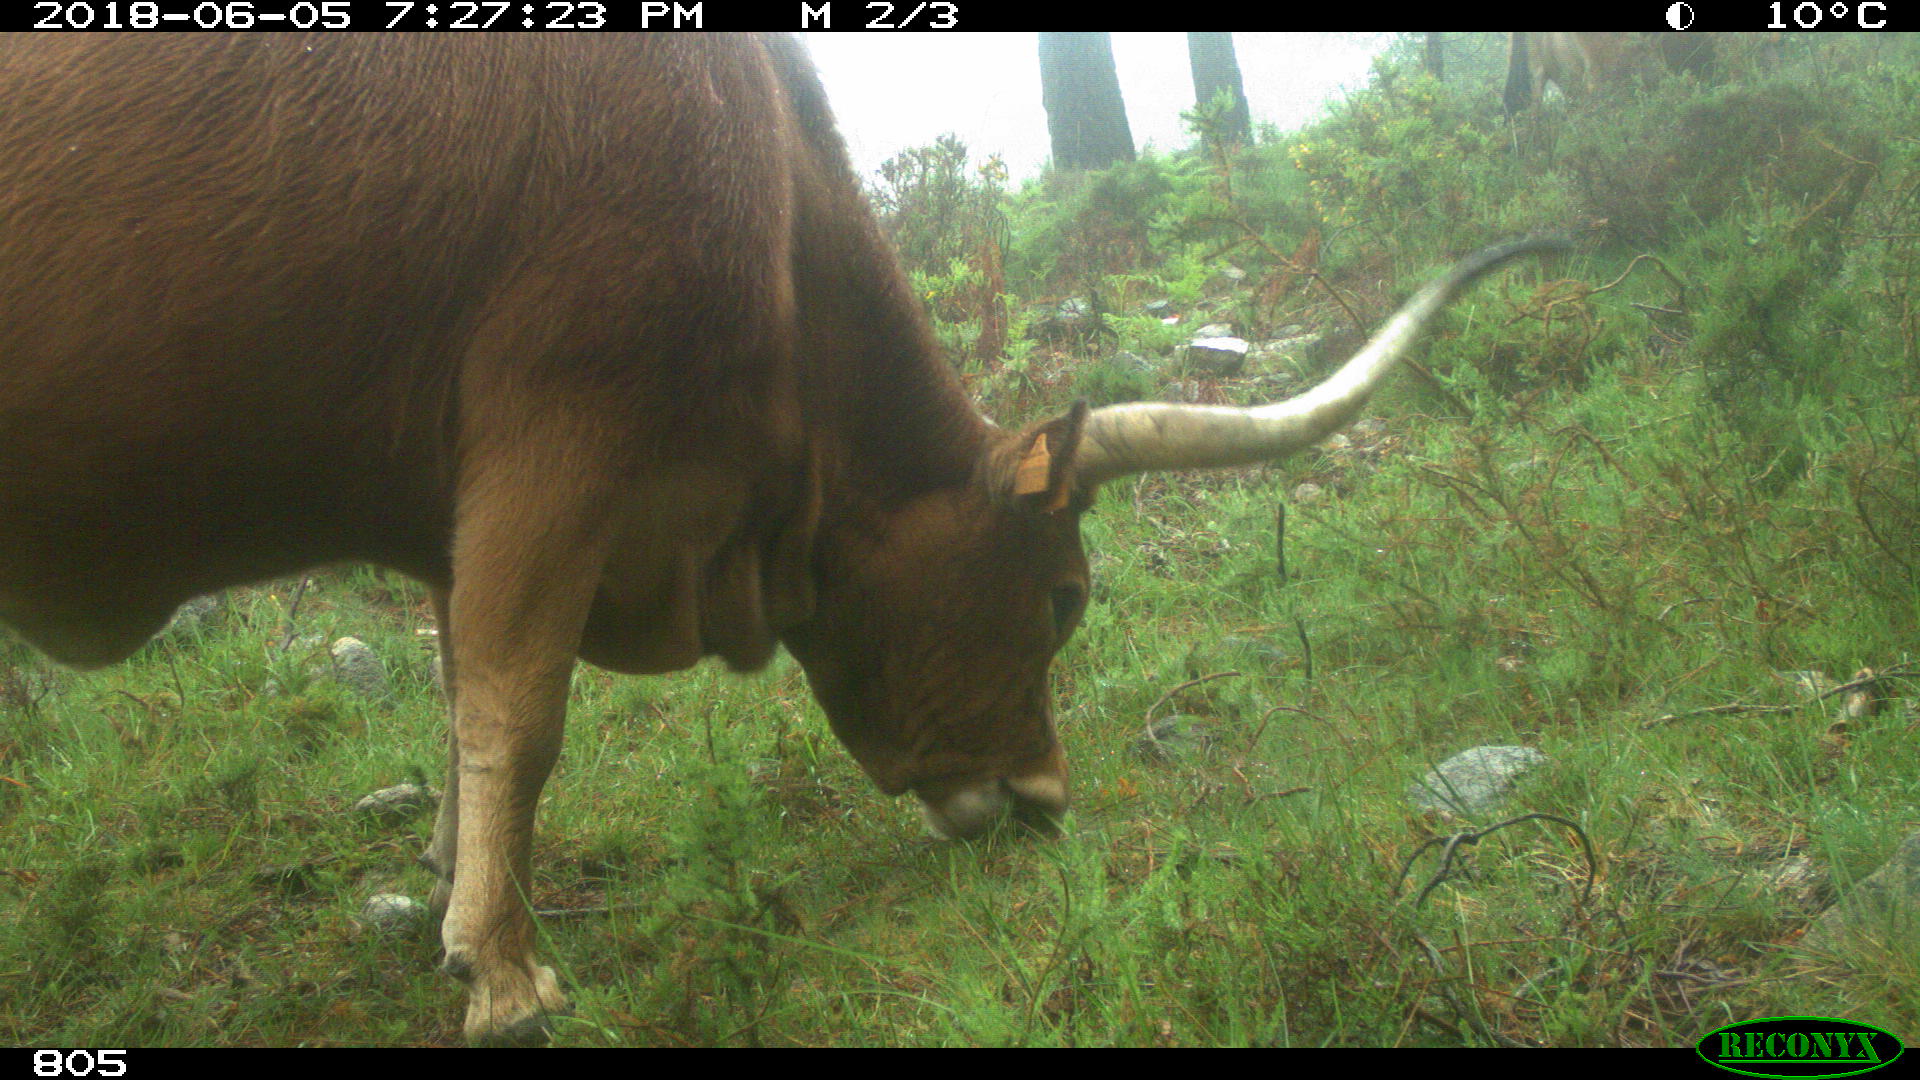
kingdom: Animalia
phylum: Chordata
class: Mammalia
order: Artiodactyla
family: Bovidae
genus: Bos
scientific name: Bos taurus
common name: Domesticated cattle
